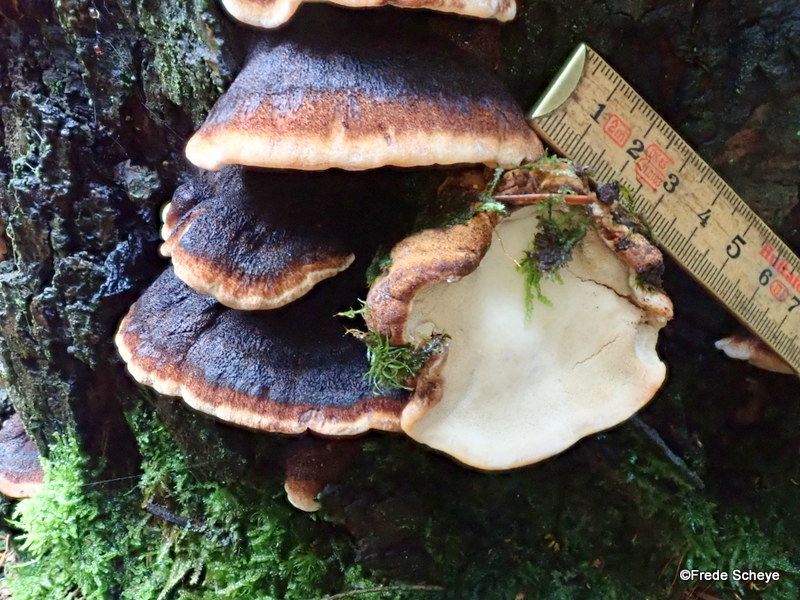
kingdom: Fungi
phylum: Basidiomycota
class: Agaricomycetes
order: Polyporales
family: Ischnodermataceae
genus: Ischnoderma
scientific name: Ischnoderma benzoinum
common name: gran-tjæreporesvamp
